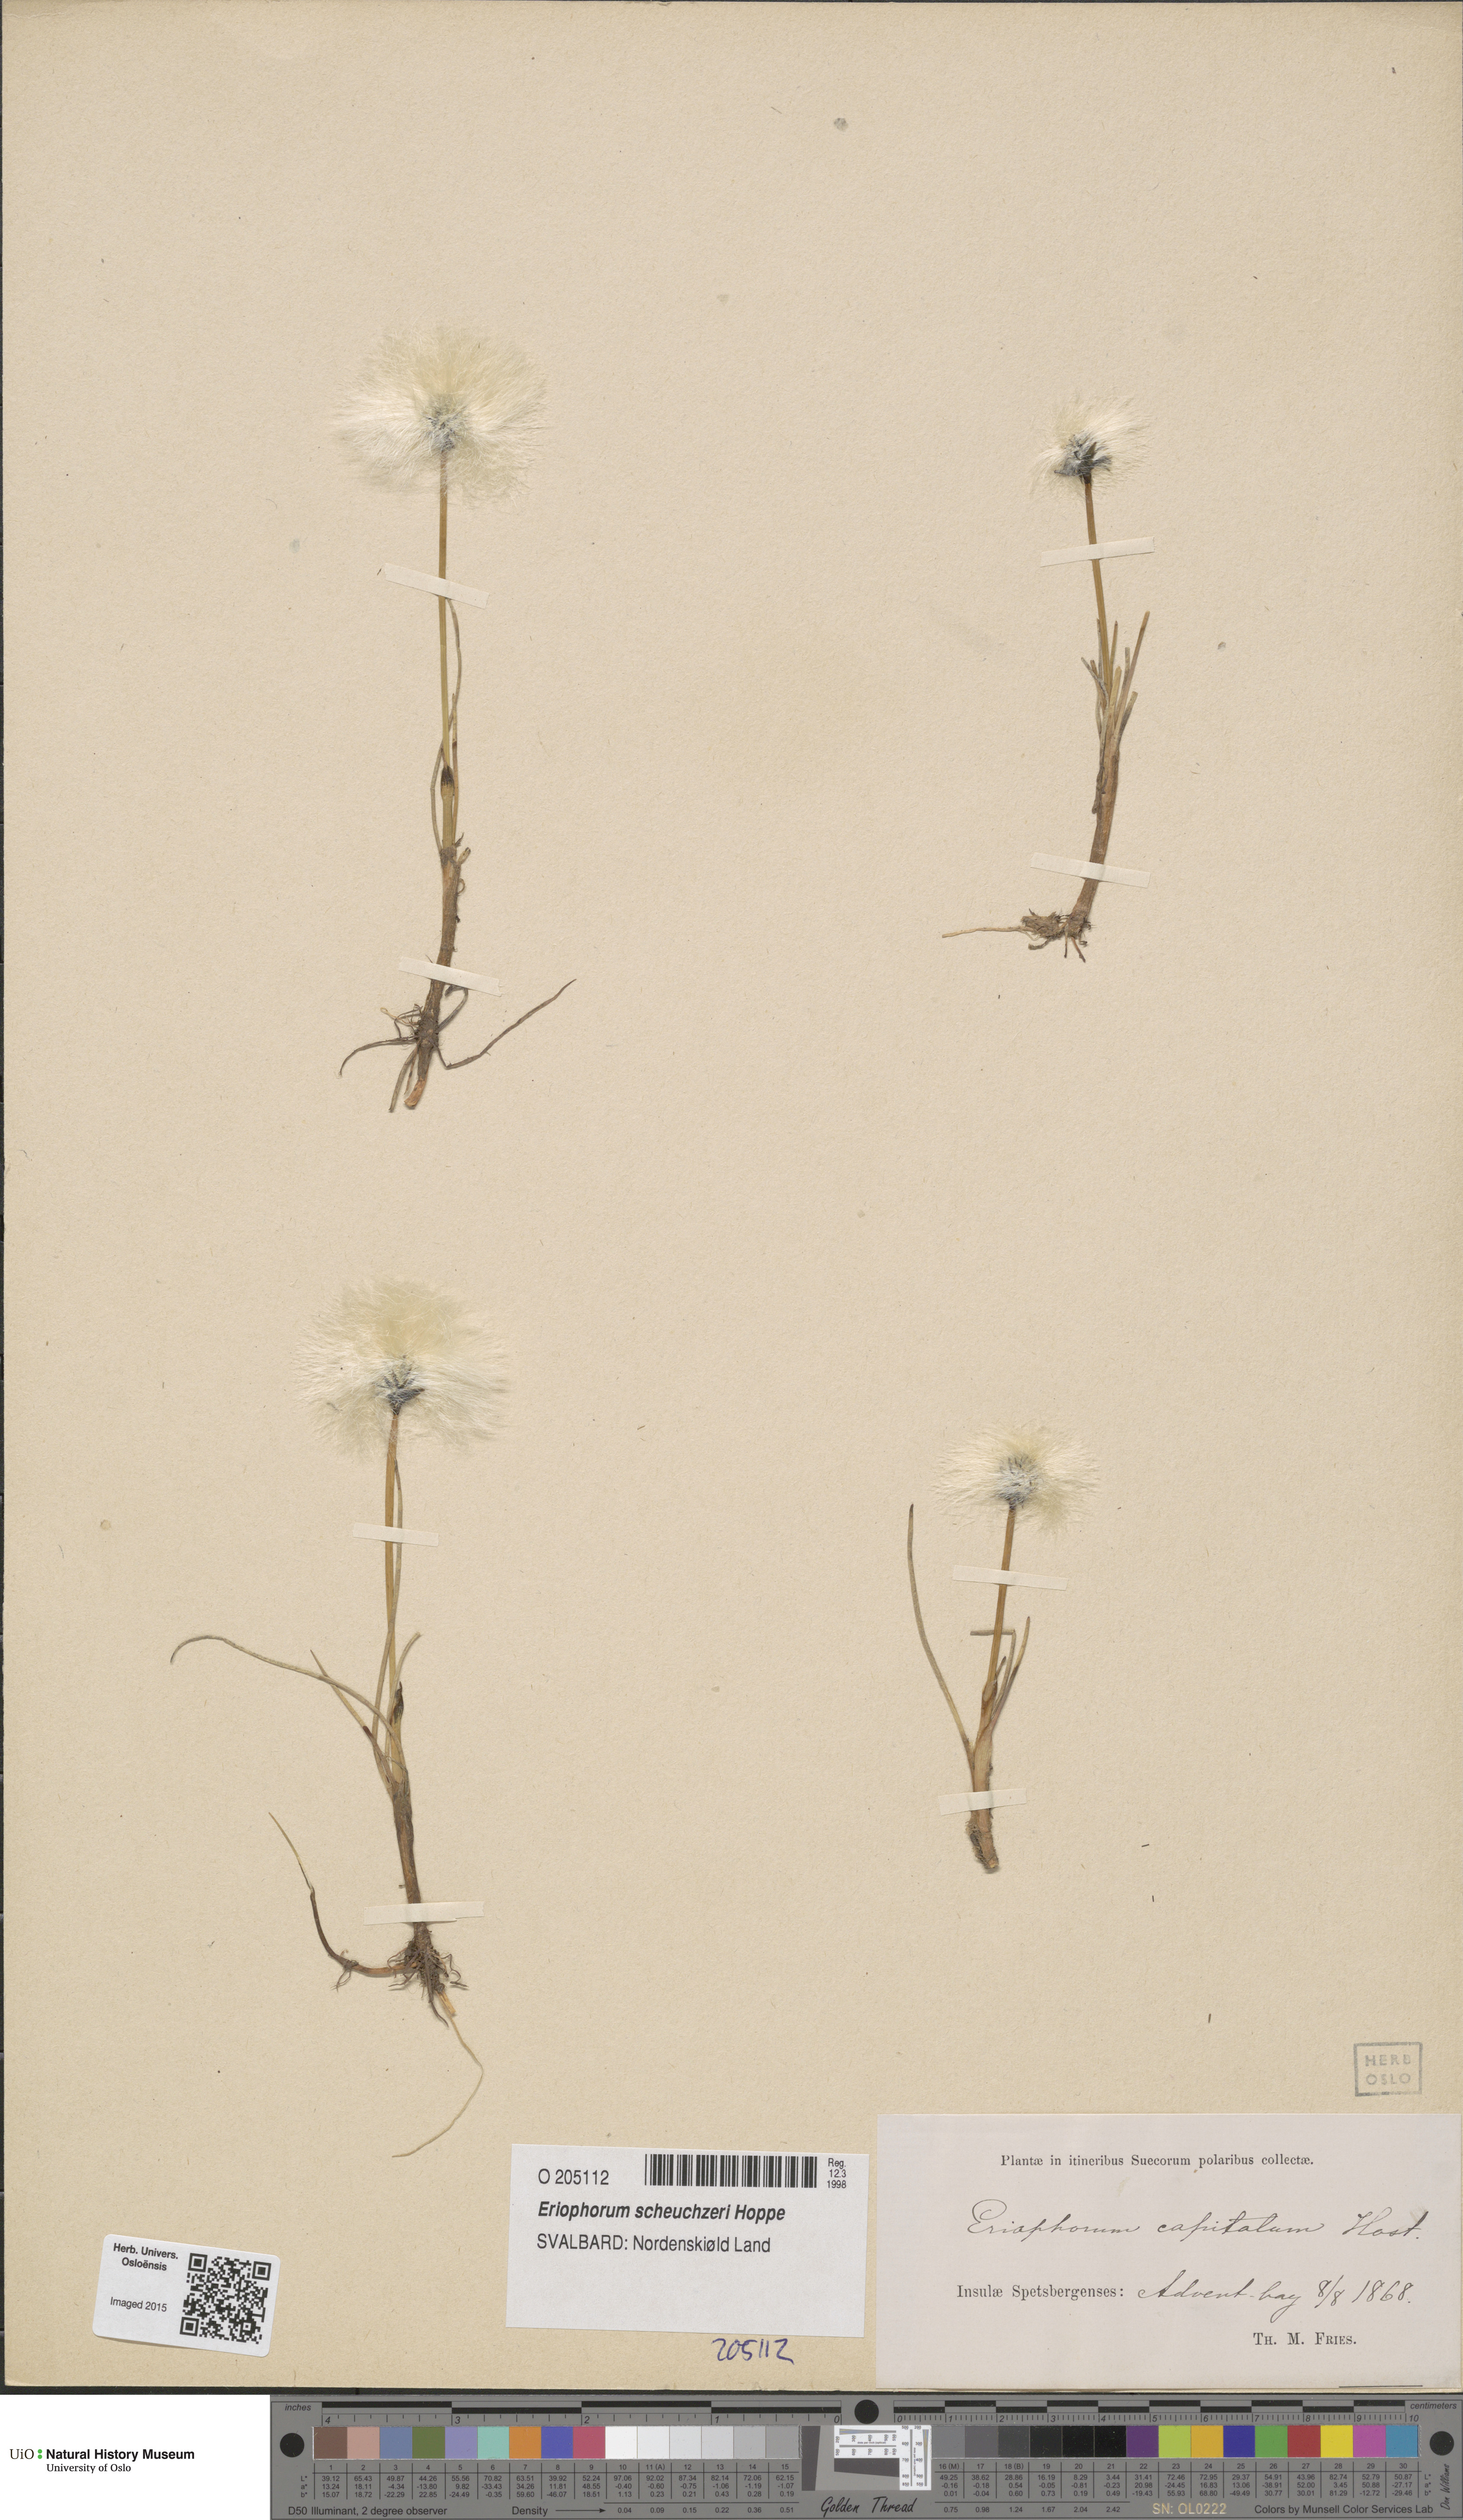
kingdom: Plantae
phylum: Tracheophyta
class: Liliopsida
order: Poales
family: Cyperaceae
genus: Eriophorum
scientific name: Eriophorum scheuchzeri
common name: Scheuchzer's cottongrass
